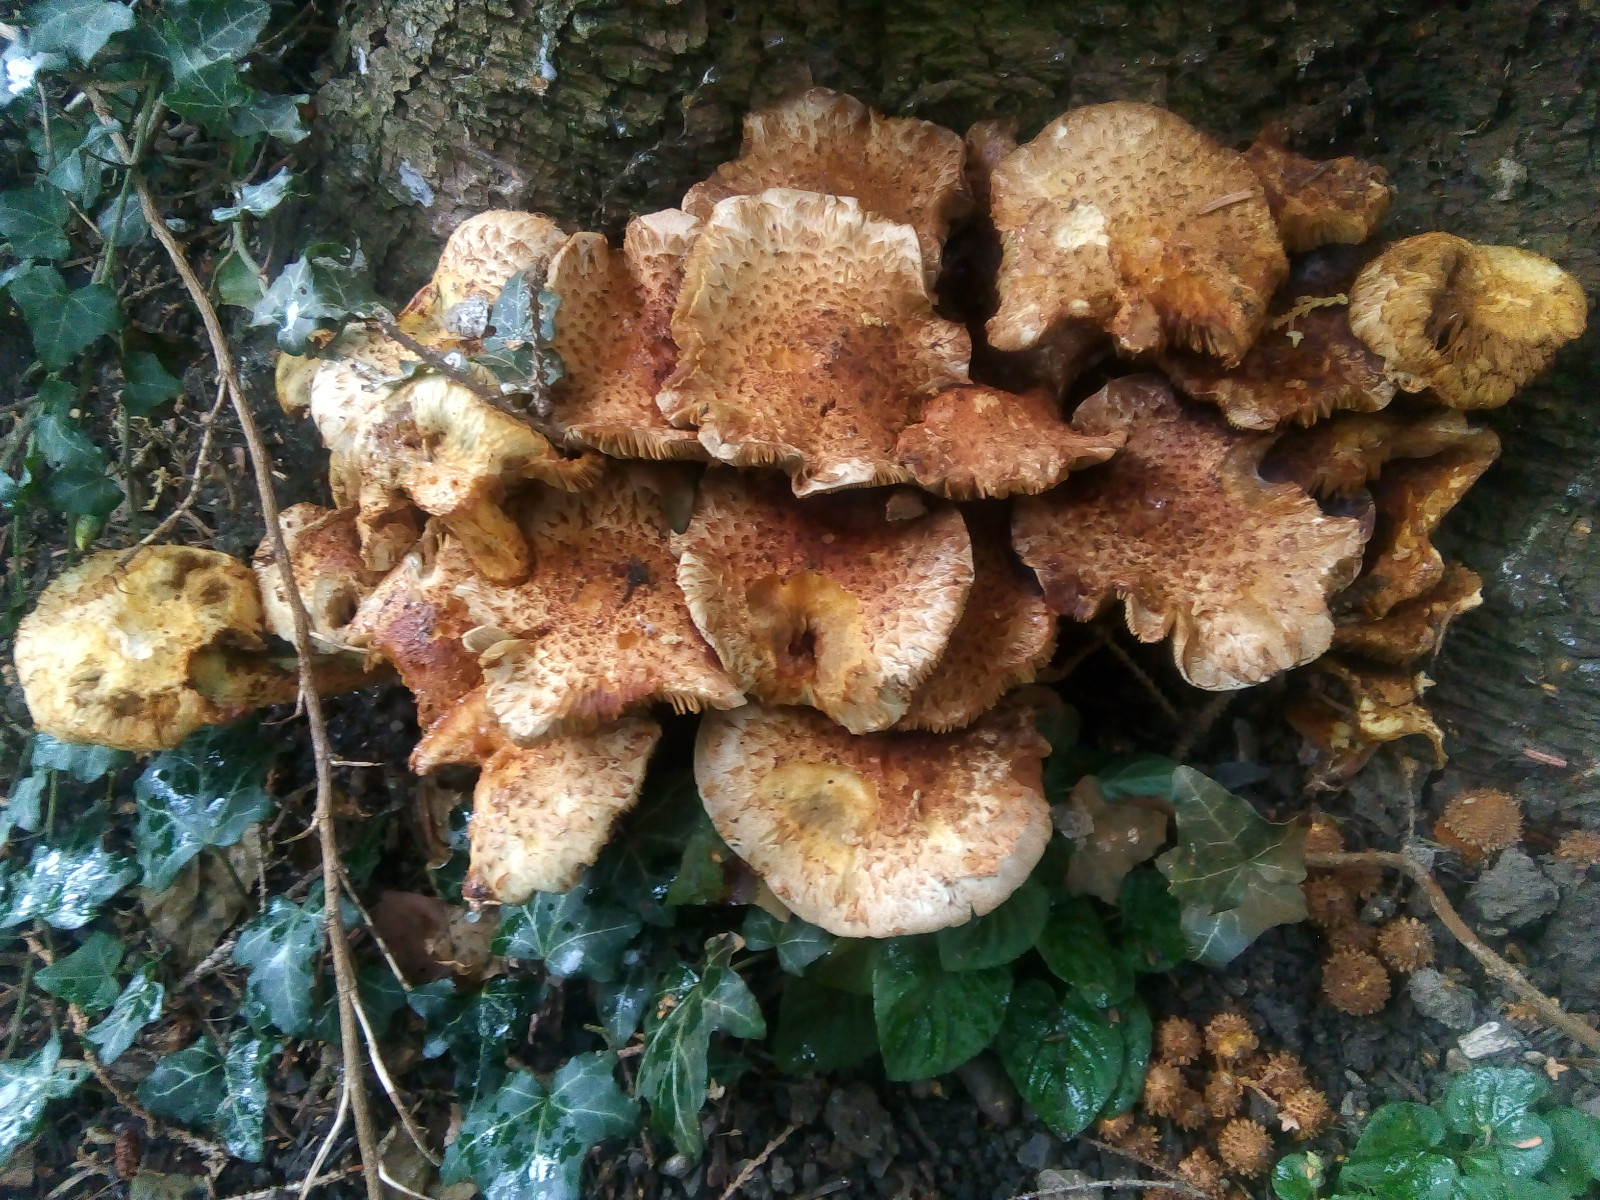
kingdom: Fungi
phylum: Basidiomycota
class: Agaricomycetes
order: Agaricales
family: Strophariaceae
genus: Pholiota
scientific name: Pholiota squarrosa
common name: krumskællet skælhat
